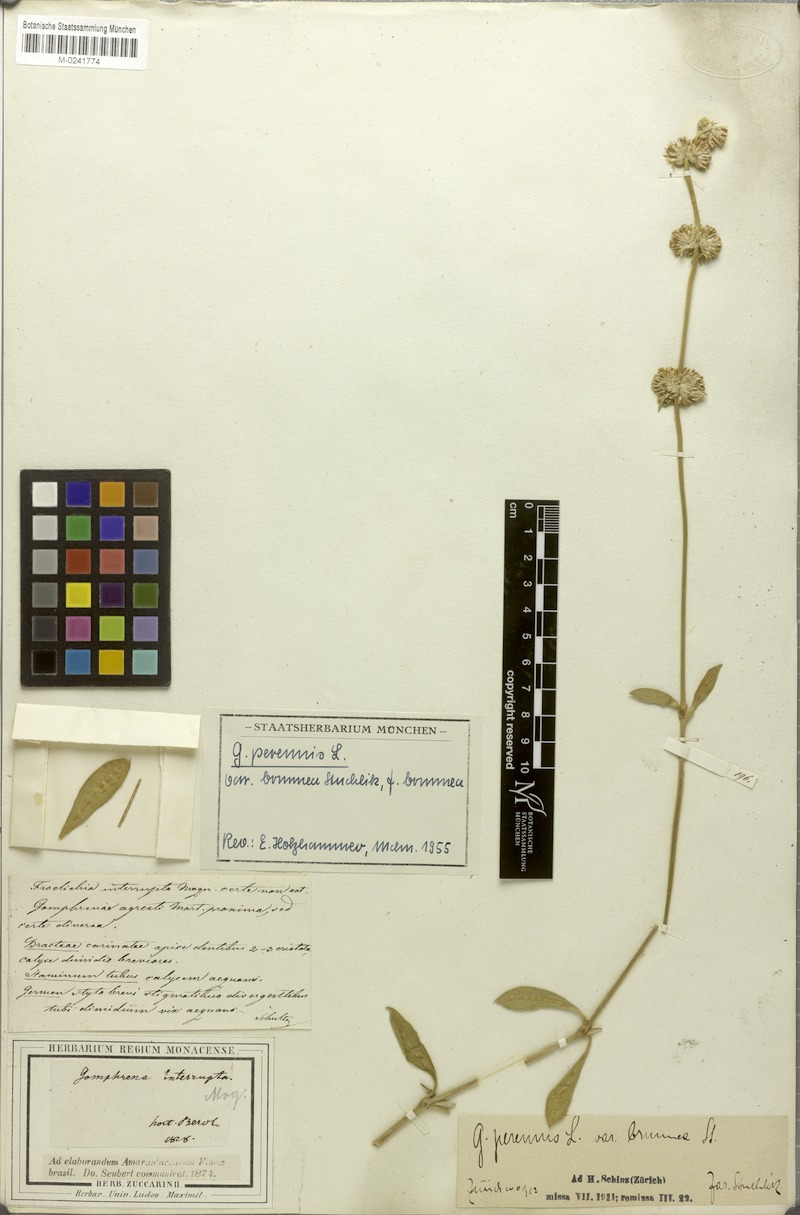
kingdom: Plantae
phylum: Tracheophyta
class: Magnoliopsida
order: Caryophyllales
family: Amaranthaceae
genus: Gomphrena
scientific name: Gomphrena perennis
